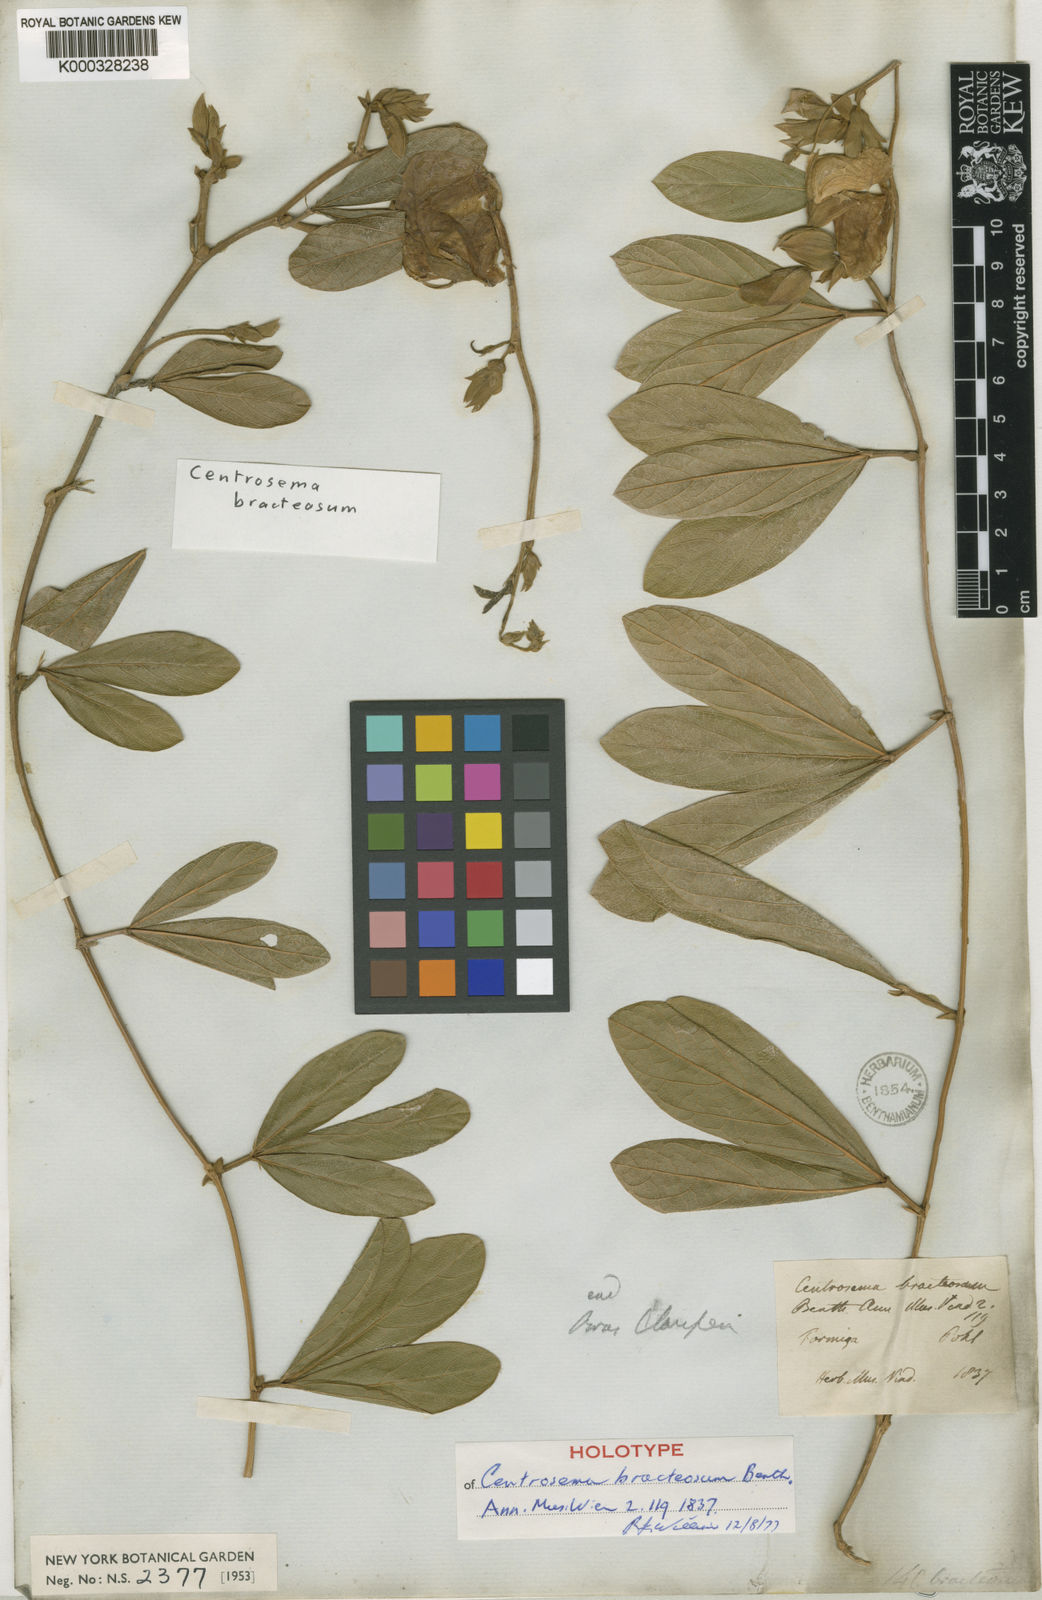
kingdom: Plantae
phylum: Tracheophyta
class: Magnoliopsida
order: Fabales
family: Fabaceae
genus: Centrosema
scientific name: Centrosema bracteosum
